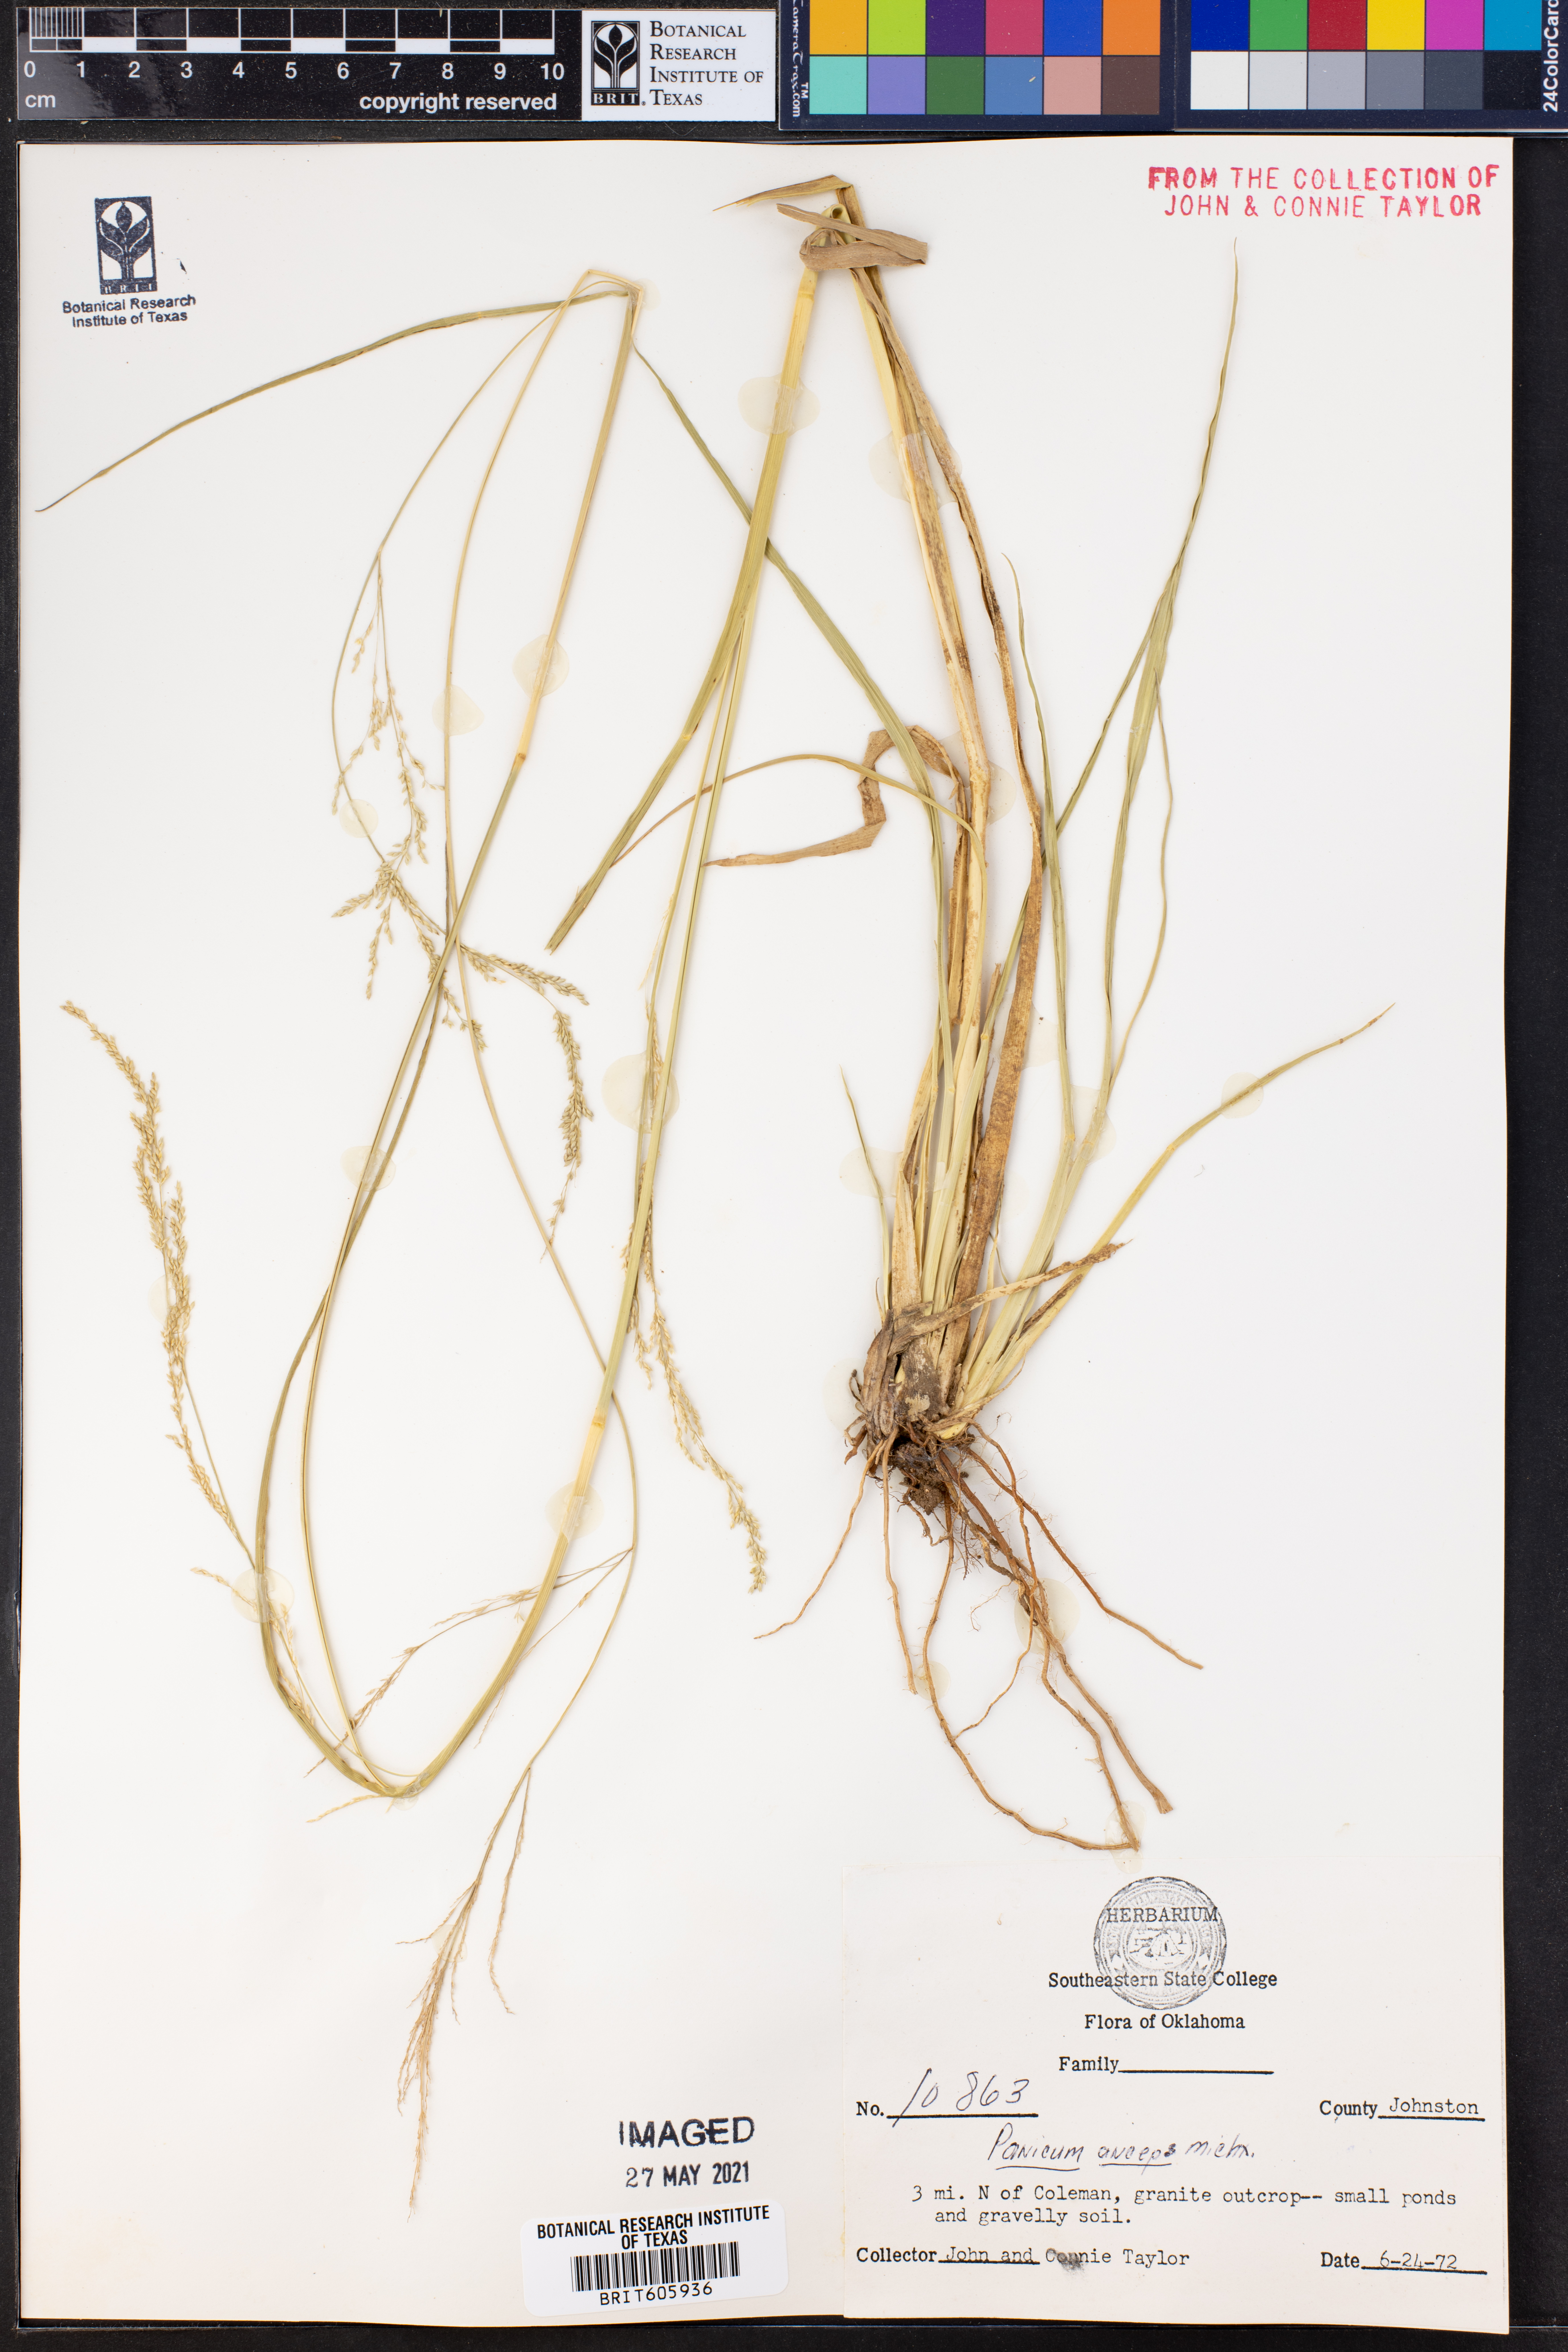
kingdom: Plantae
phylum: Tracheophyta
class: Liliopsida
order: Poales
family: Poaceae
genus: Coleataenia
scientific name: Coleataenia anceps
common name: Beaked panic grass
